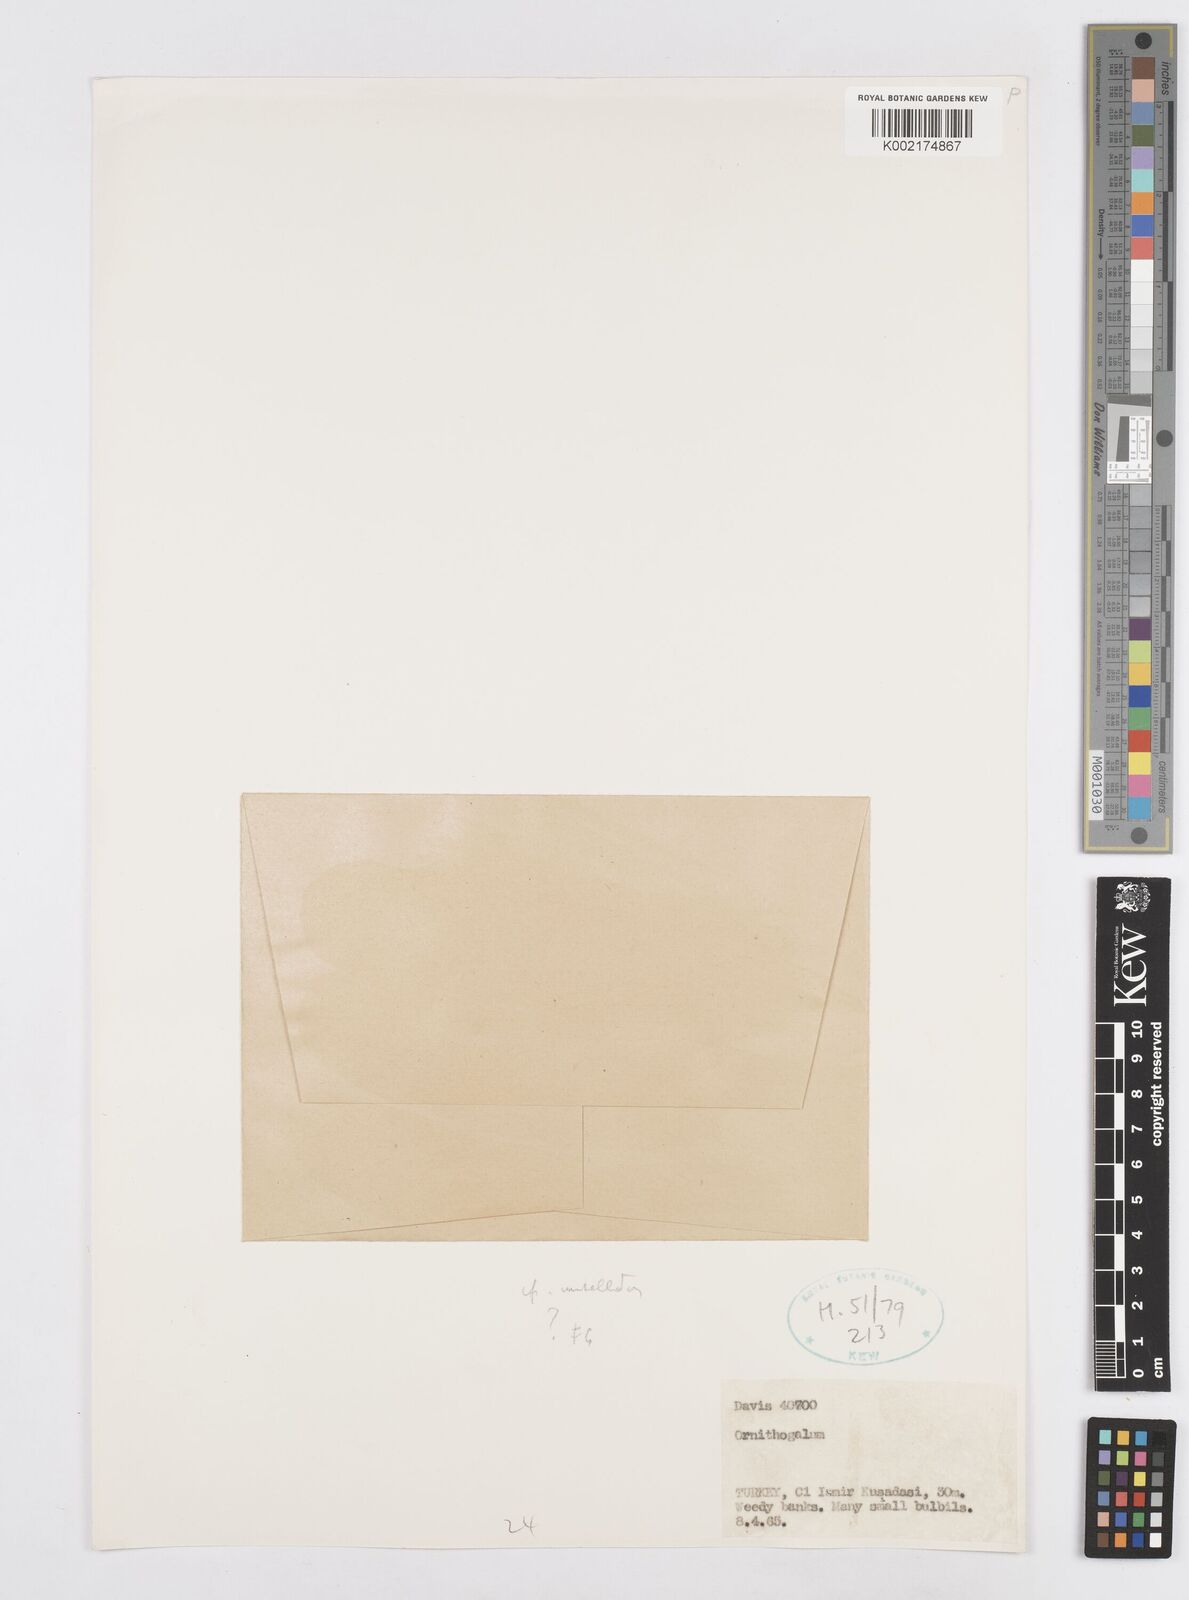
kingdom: Plantae
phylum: Tracheophyta
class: Liliopsida
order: Asparagales
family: Asparagaceae
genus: Ornithogalum
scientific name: Ornithogalum umbellatum
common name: Garden star-of-bethlehem
